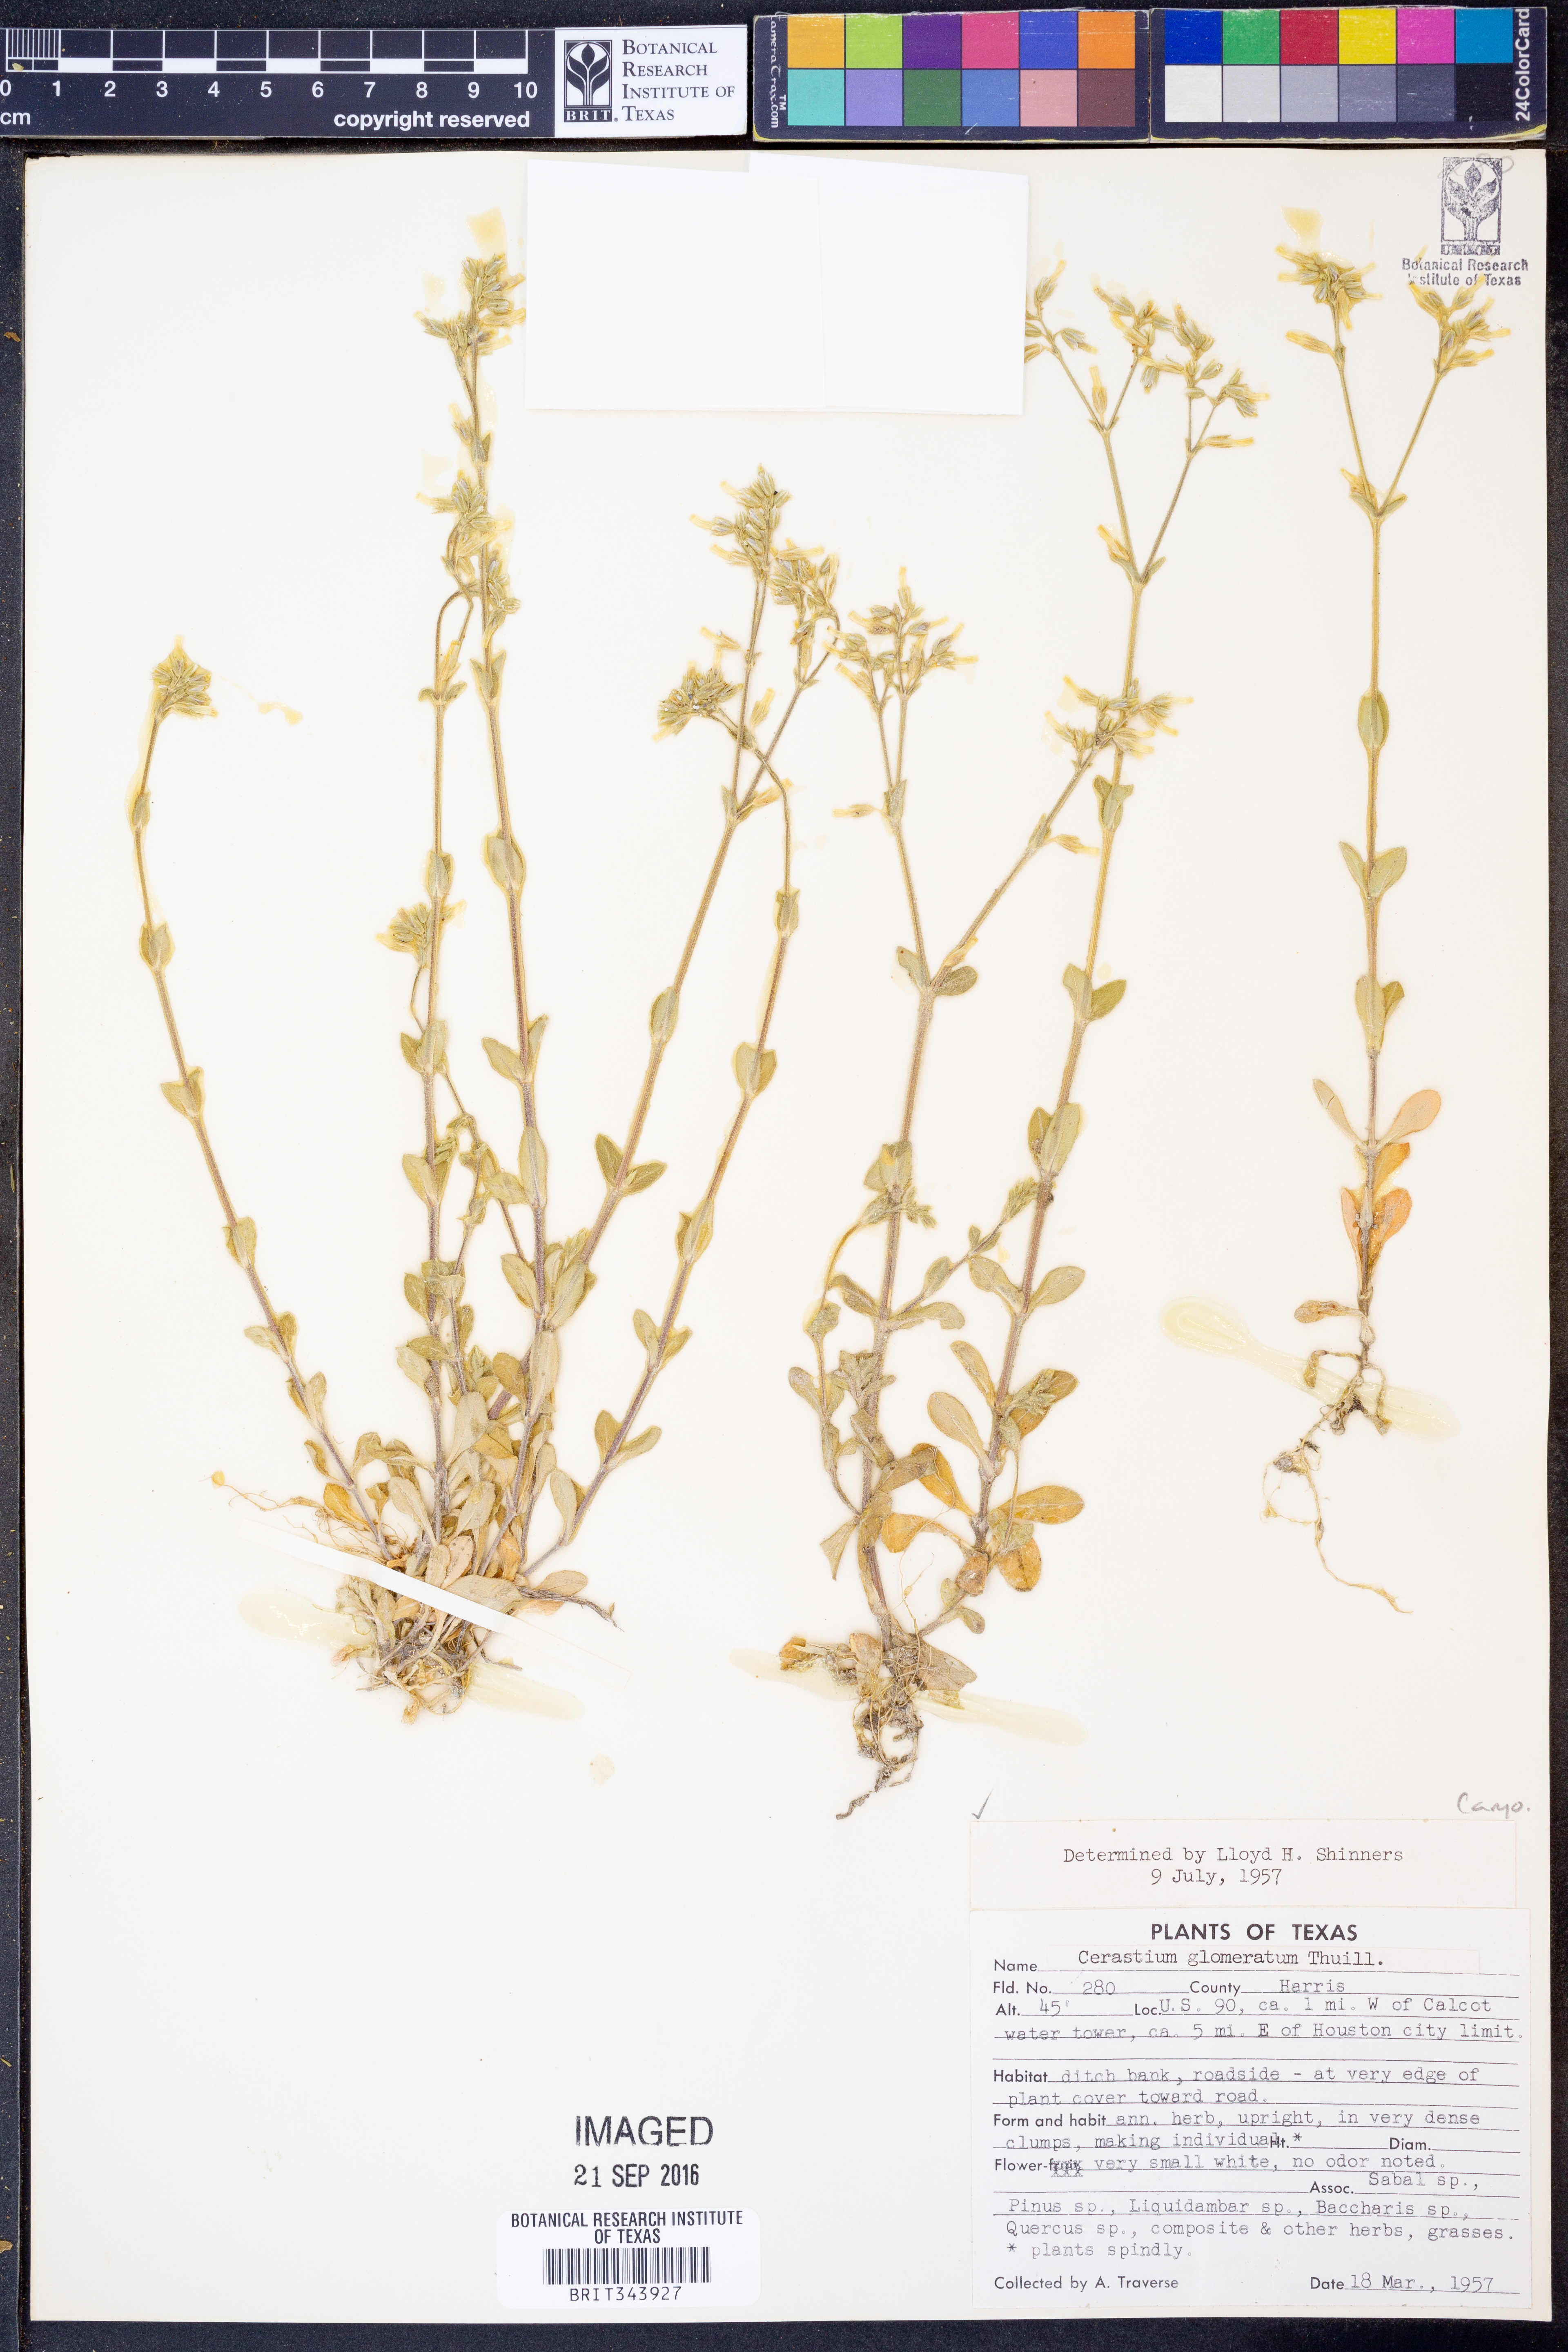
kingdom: Plantae
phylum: Tracheophyta
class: Magnoliopsida
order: Caryophyllales
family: Caryophyllaceae
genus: Cerastium
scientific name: Cerastium glomeratum
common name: Sticky chickweed
